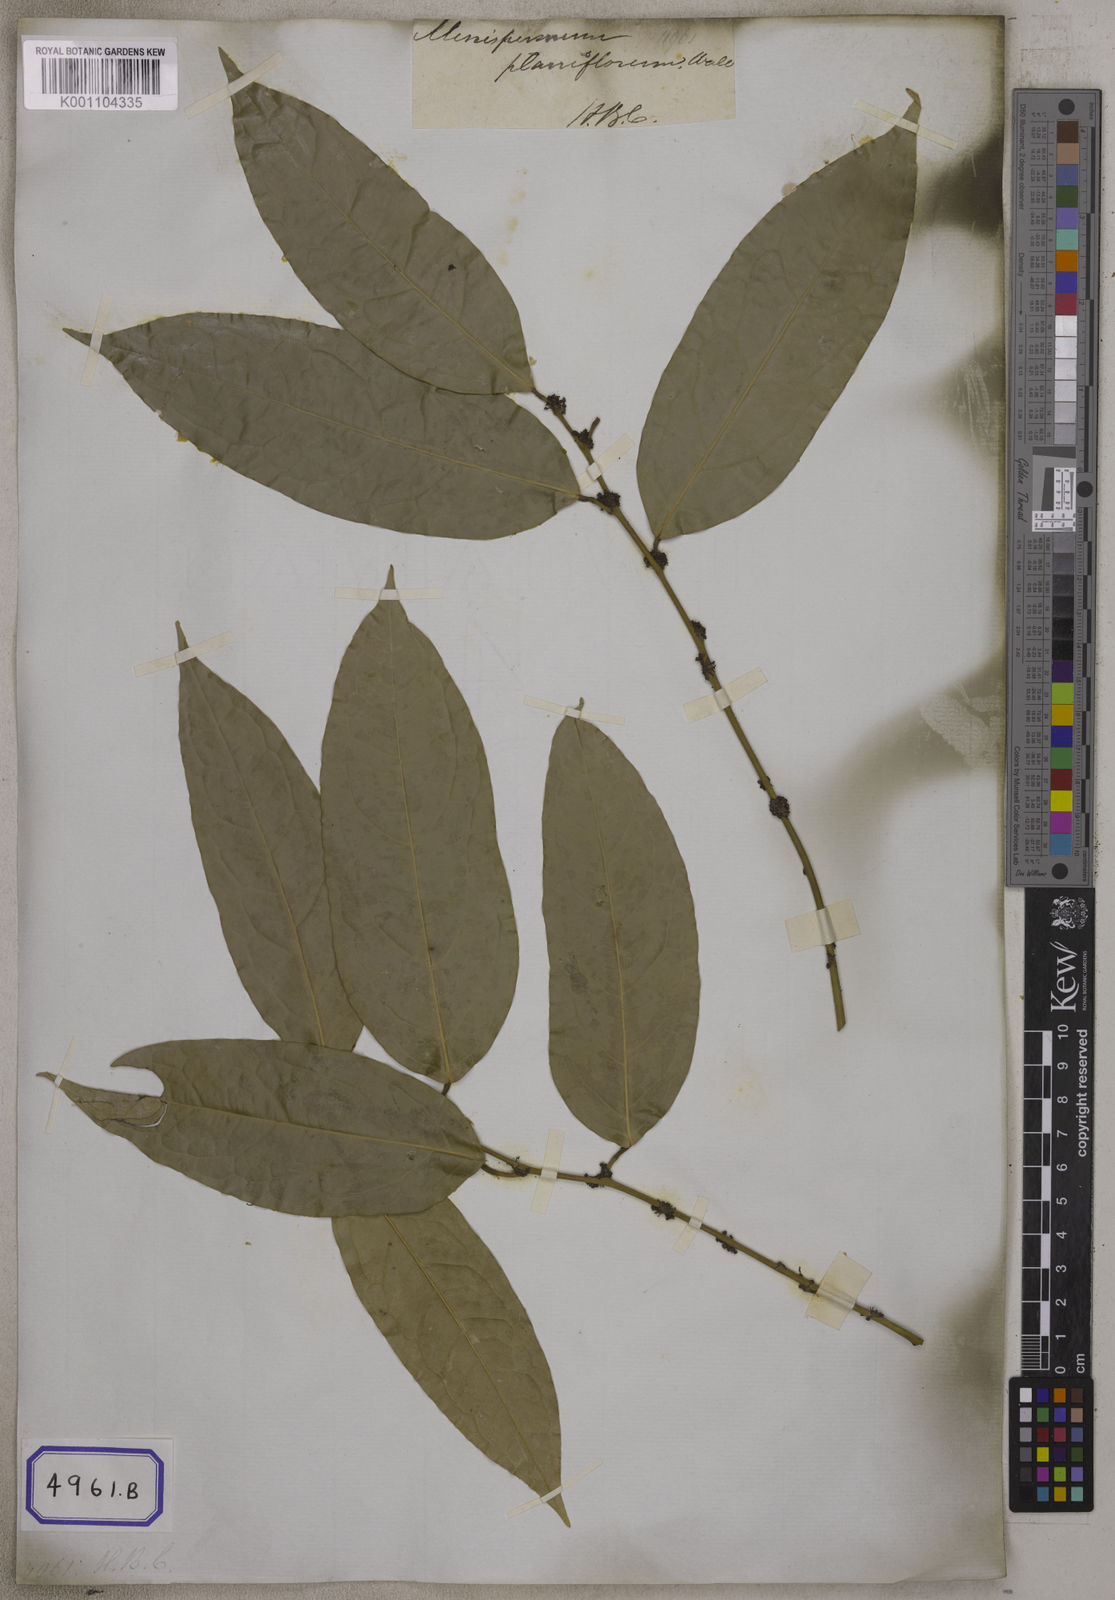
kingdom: Plantae
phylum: Tracheophyta
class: Magnoliopsida
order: Ranunculales
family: Menispermaceae
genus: Pycnarrhena
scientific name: Pycnarrhena pleniflora
